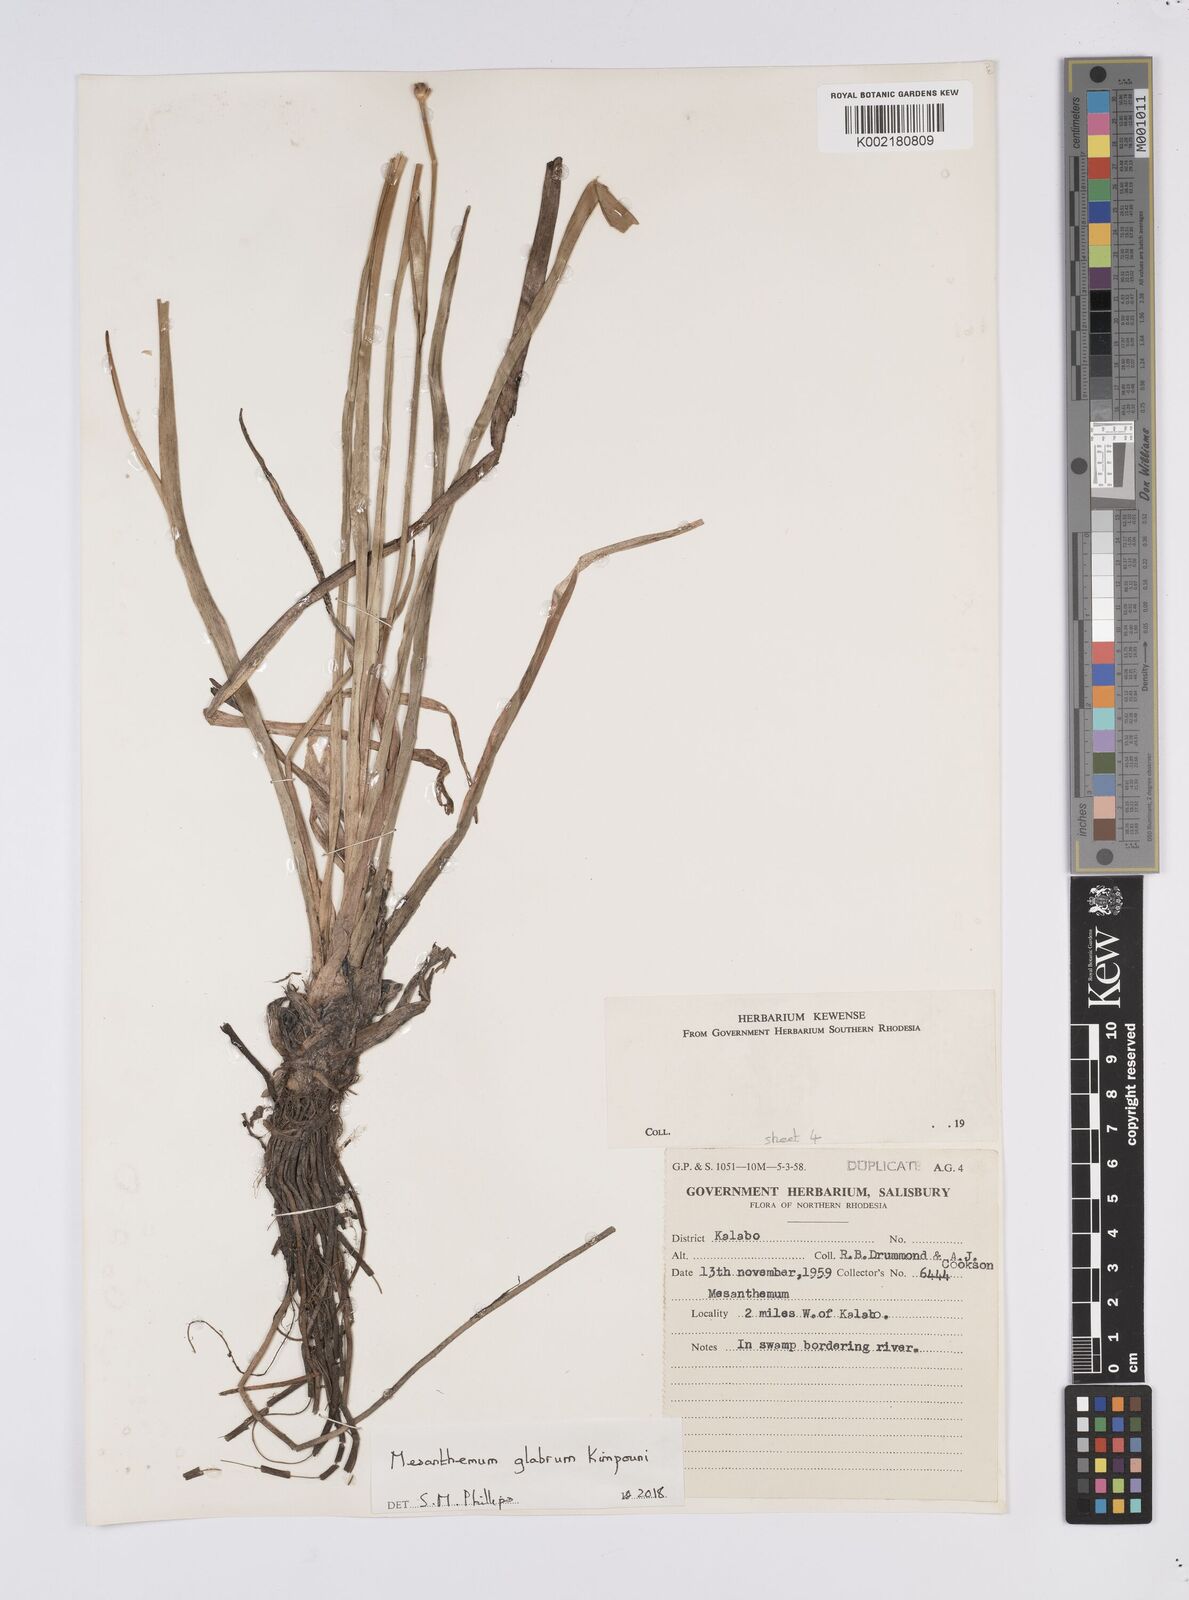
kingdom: Plantae
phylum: Tracheophyta
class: Liliopsida
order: Poales
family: Eriocaulaceae
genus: Mesanthemum
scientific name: Mesanthemum glabrum
